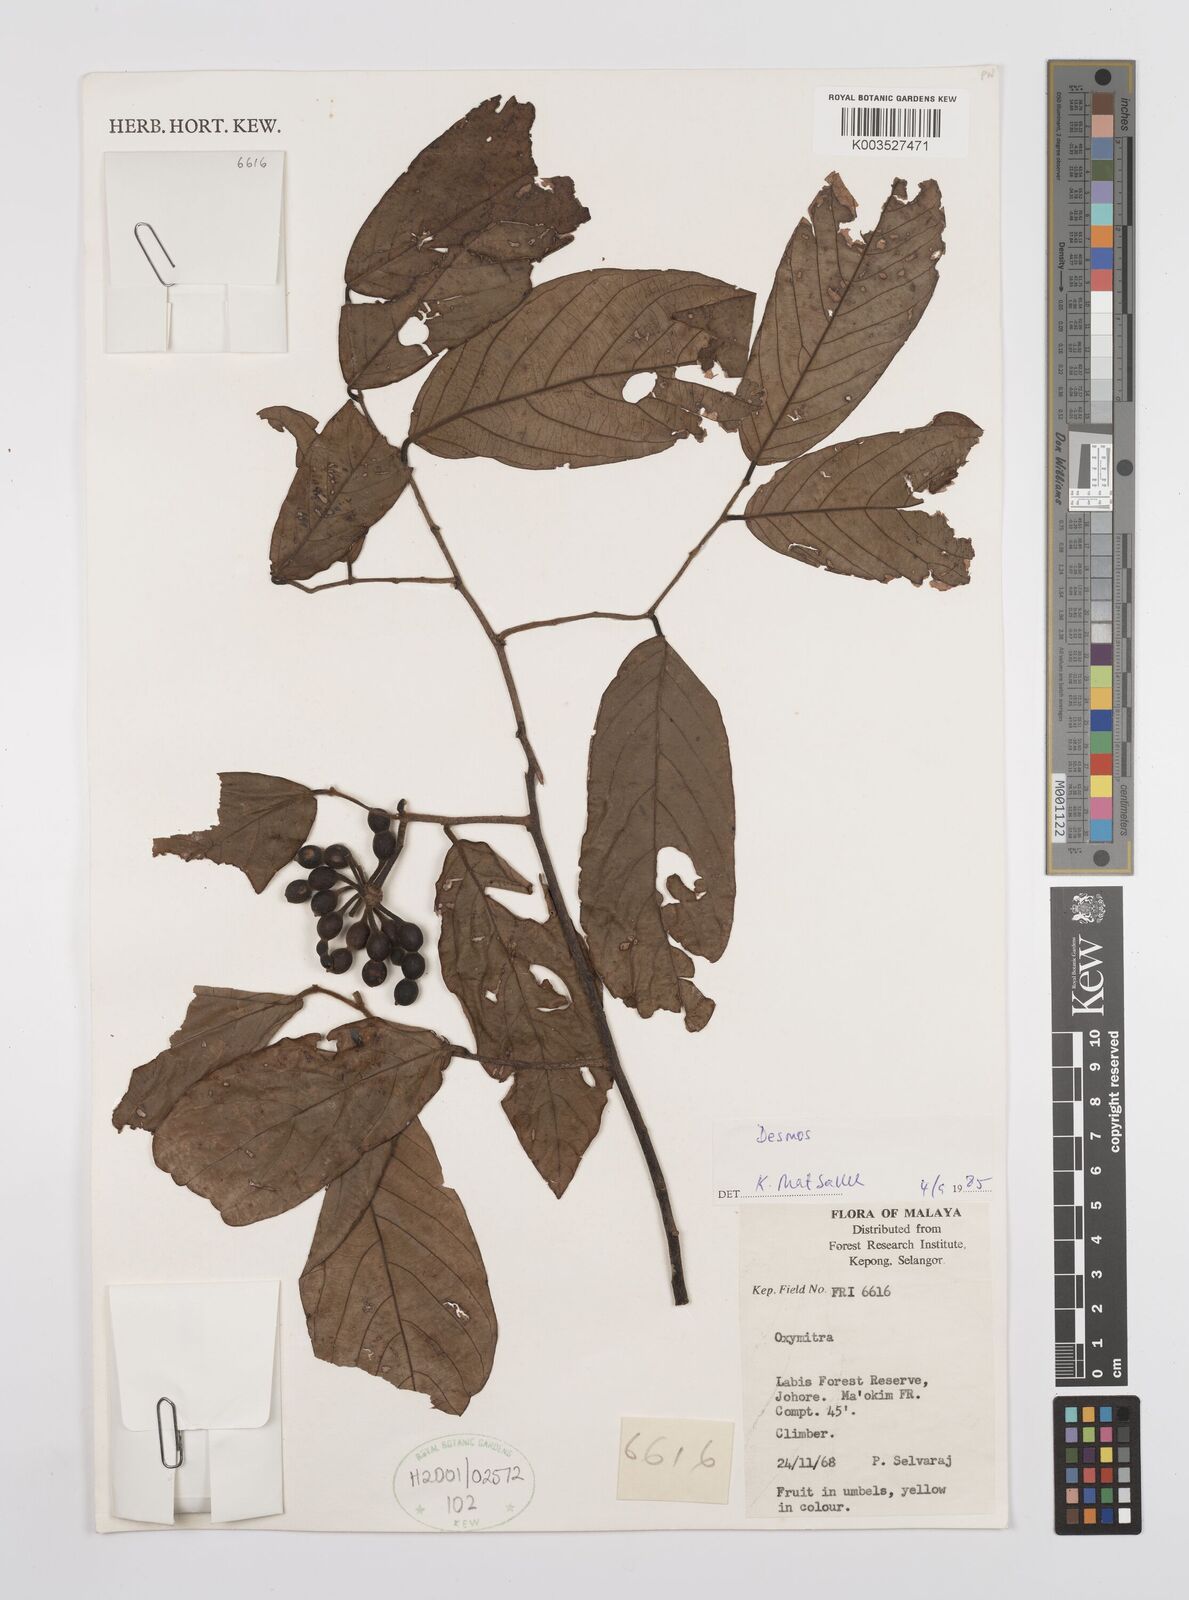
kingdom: Plantae
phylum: Tracheophyta
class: Magnoliopsida
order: Magnoliales
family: Annonaceae
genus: Desmos
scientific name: Desmos
